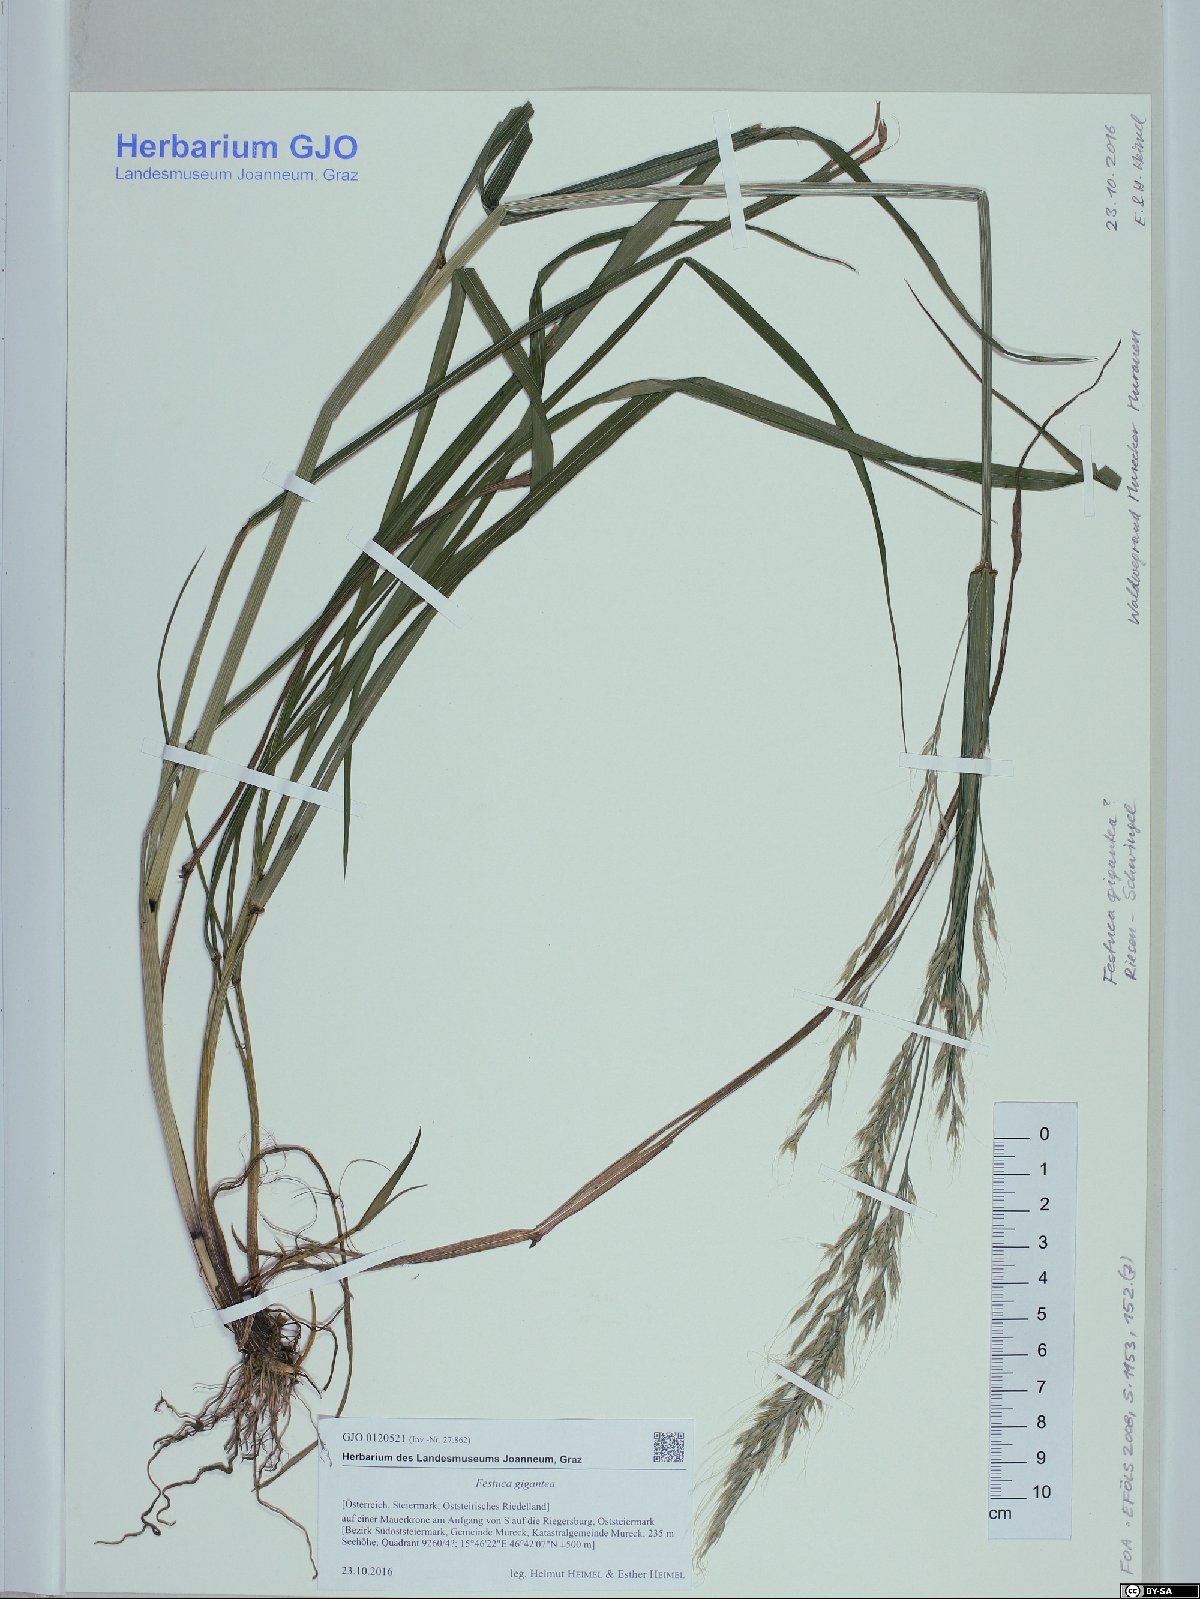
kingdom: Plantae
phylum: Tracheophyta
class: Liliopsida
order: Poales
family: Poaceae
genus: Lolium
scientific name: Lolium giganteum
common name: Giant fescue
